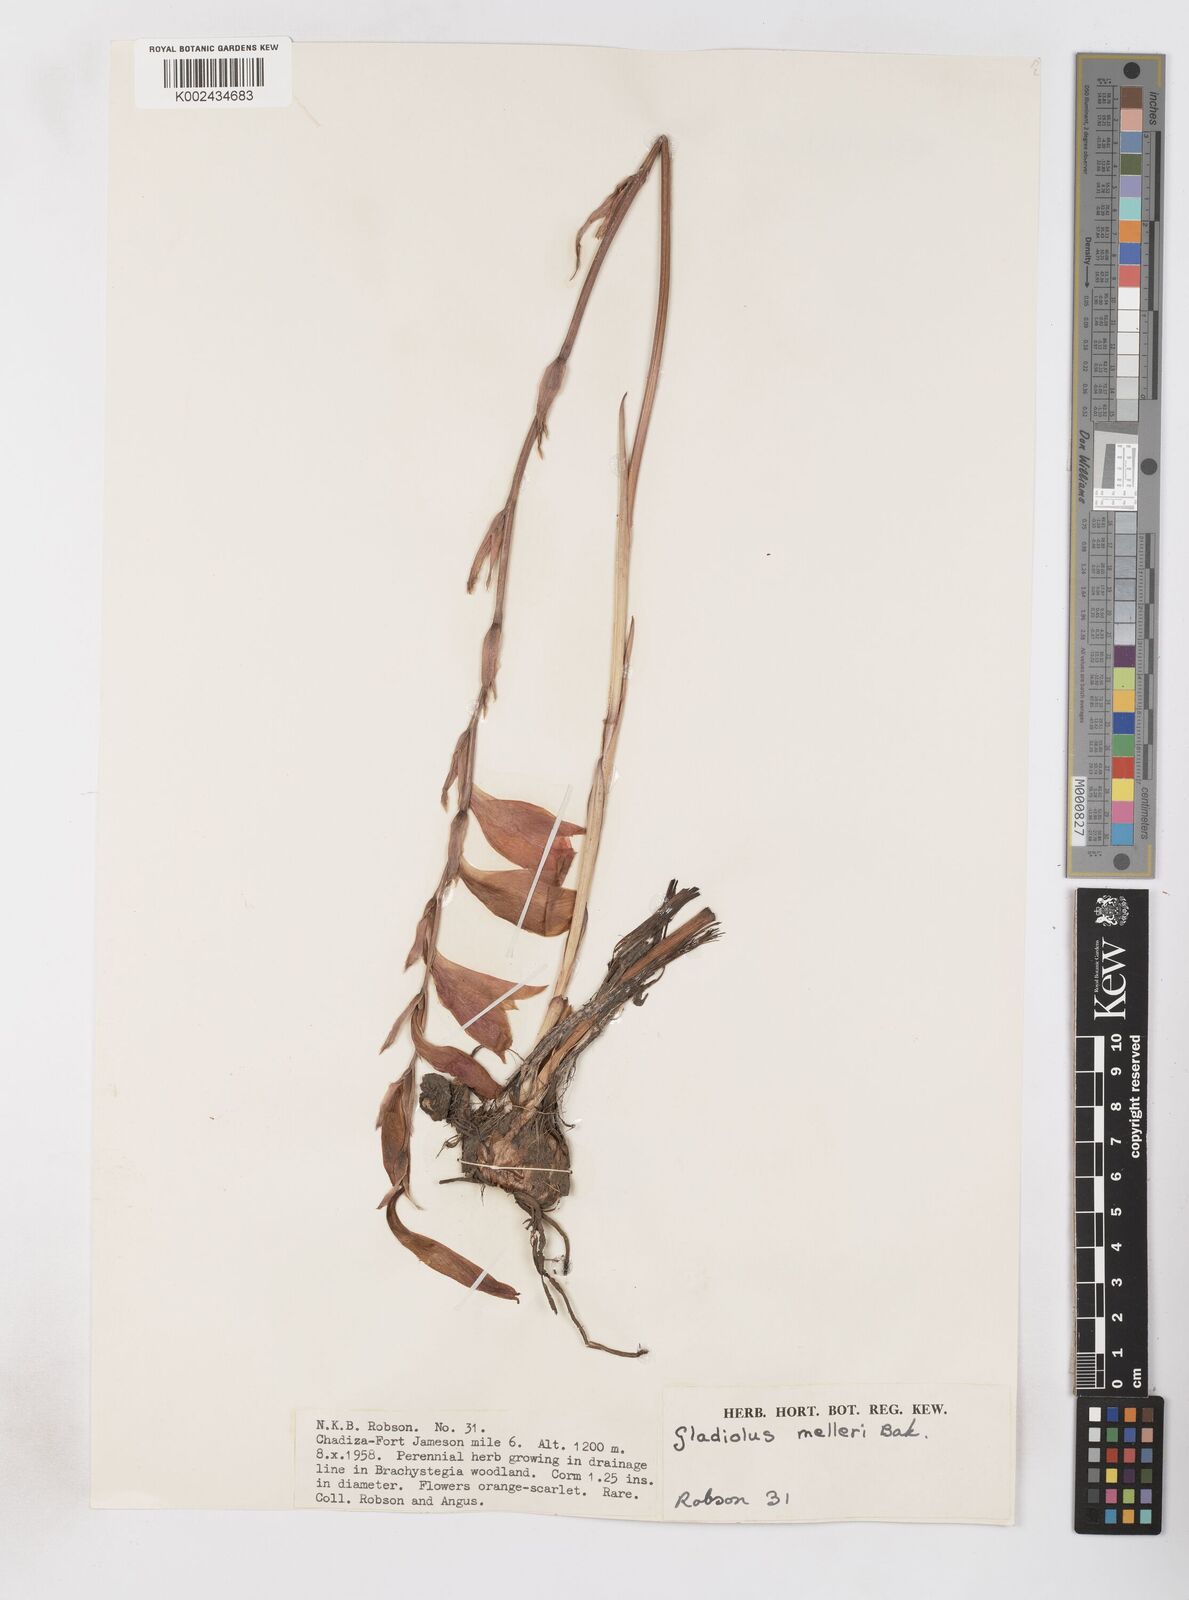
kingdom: Plantae
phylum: Tracheophyta
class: Liliopsida
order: Asparagales
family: Iridaceae
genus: Gladiolus
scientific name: Gladiolus melleri
